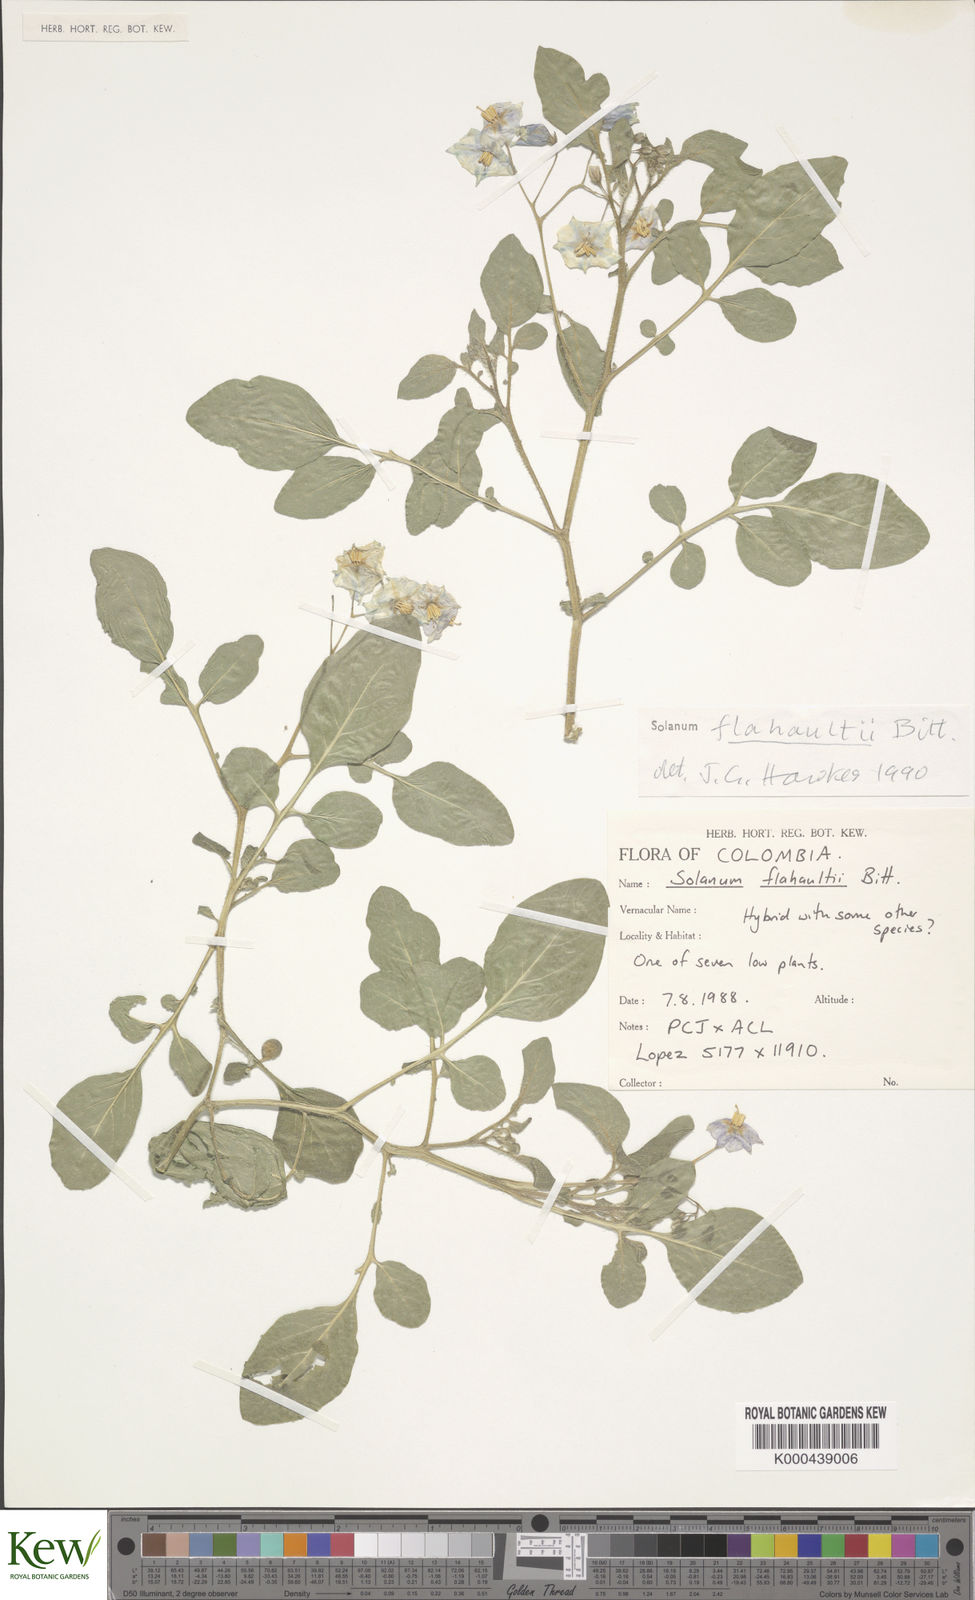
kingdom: Plantae
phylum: Tracheophyta
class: Magnoliopsida
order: Brassicales
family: Resedaceae
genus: Reseda
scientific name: Reseda
